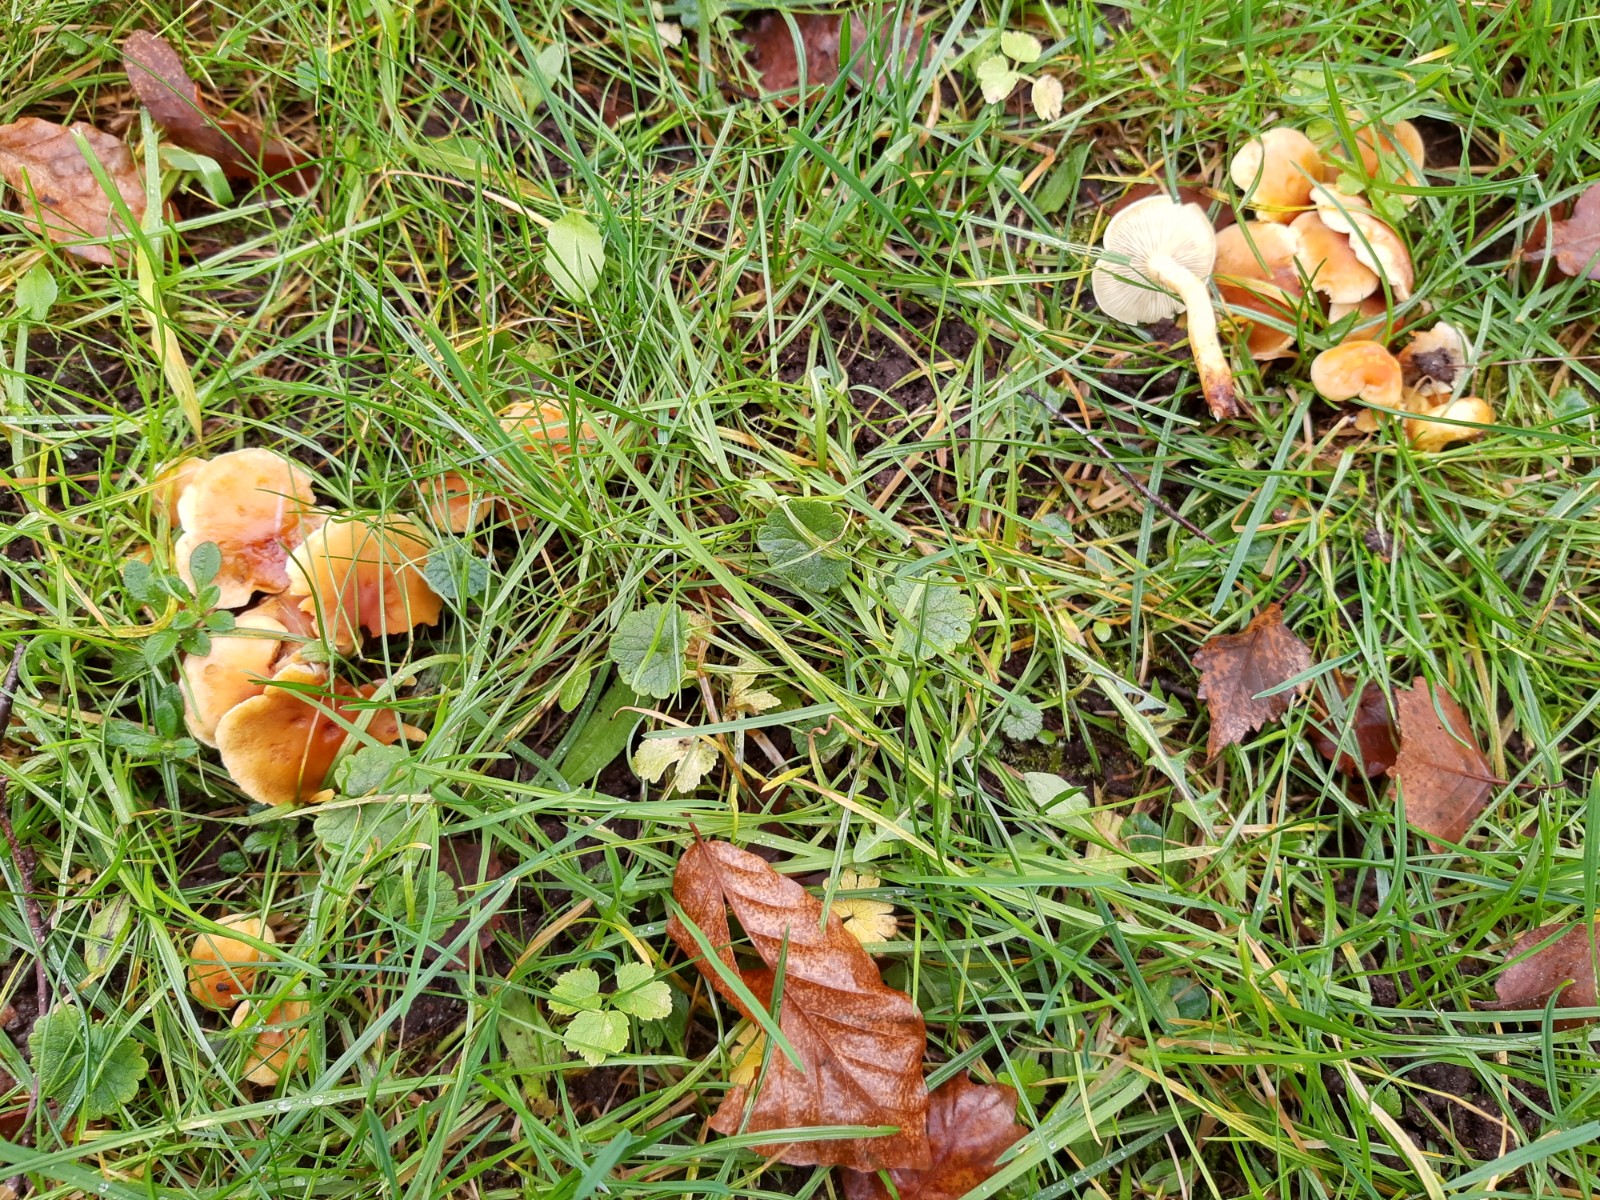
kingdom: Fungi
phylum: Basidiomycota
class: Agaricomycetes
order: Agaricales
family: Strophariaceae
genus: Hypholoma
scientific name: Hypholoma fasciculare
